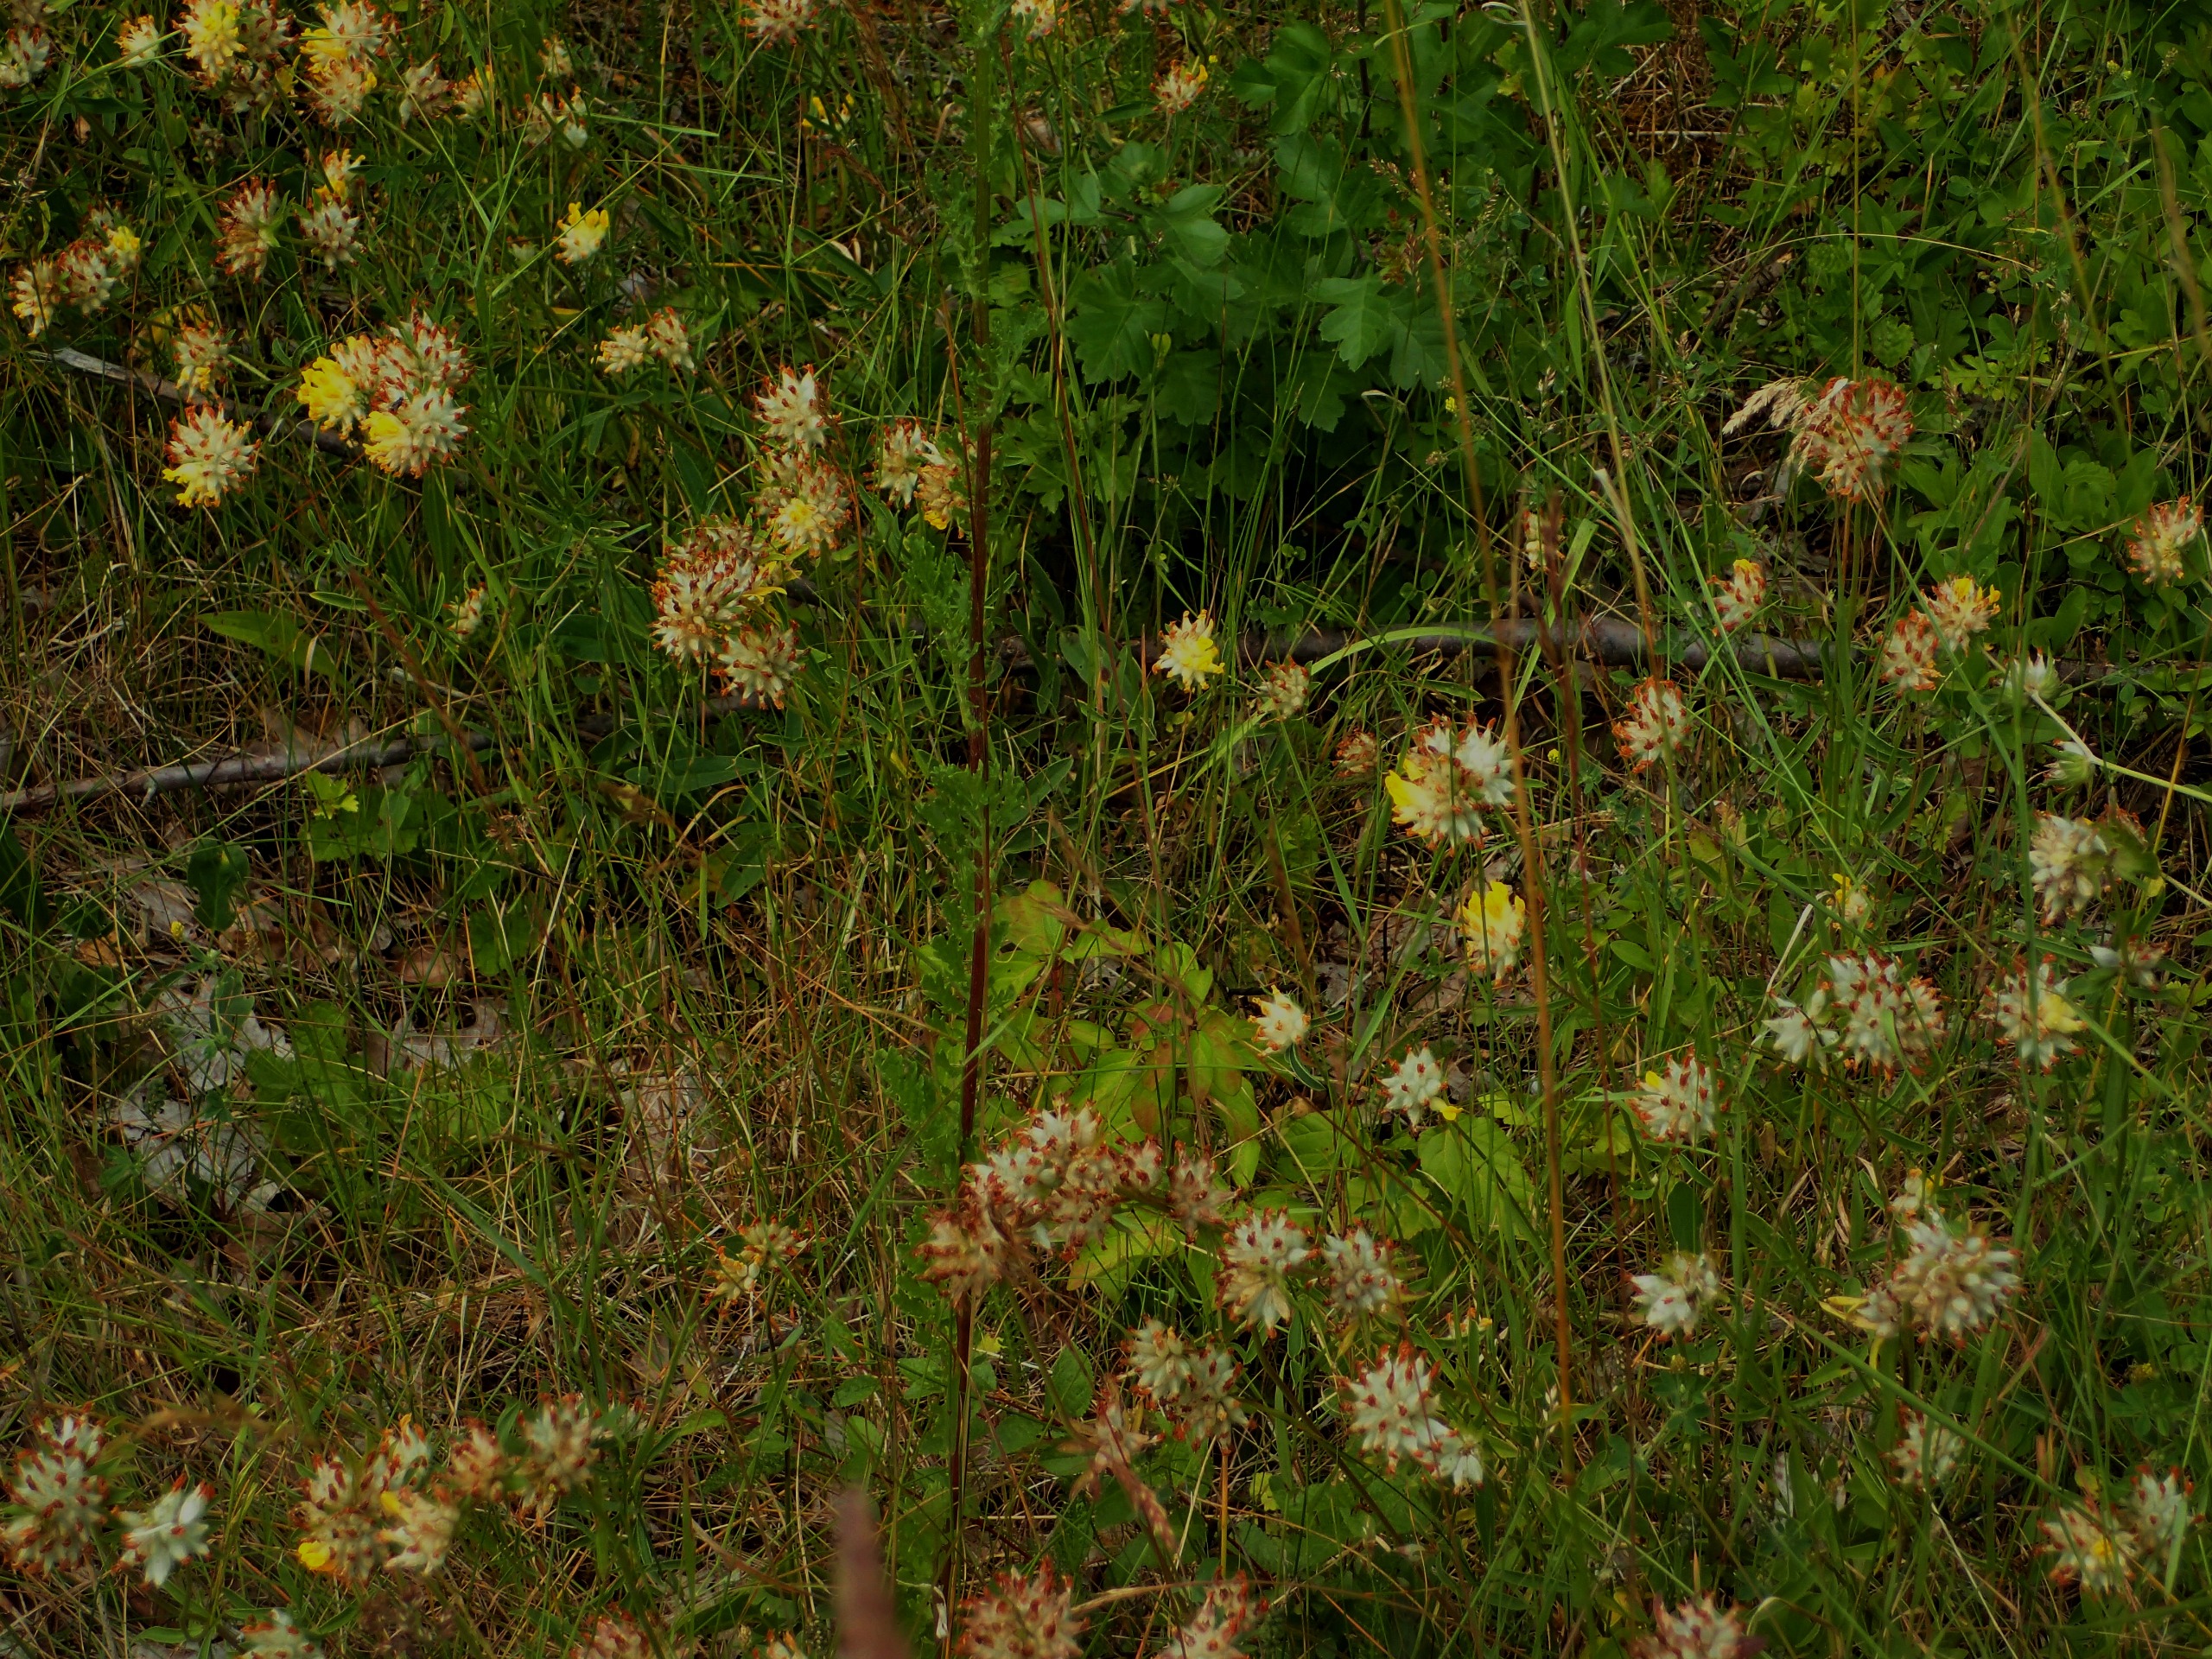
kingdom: Plantae
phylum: Tracheophyta
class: Magnoliopsida
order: Fabales
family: Fabaceae
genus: Anthyllis
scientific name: Anthyllis vulneraria
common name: Rundbælg
